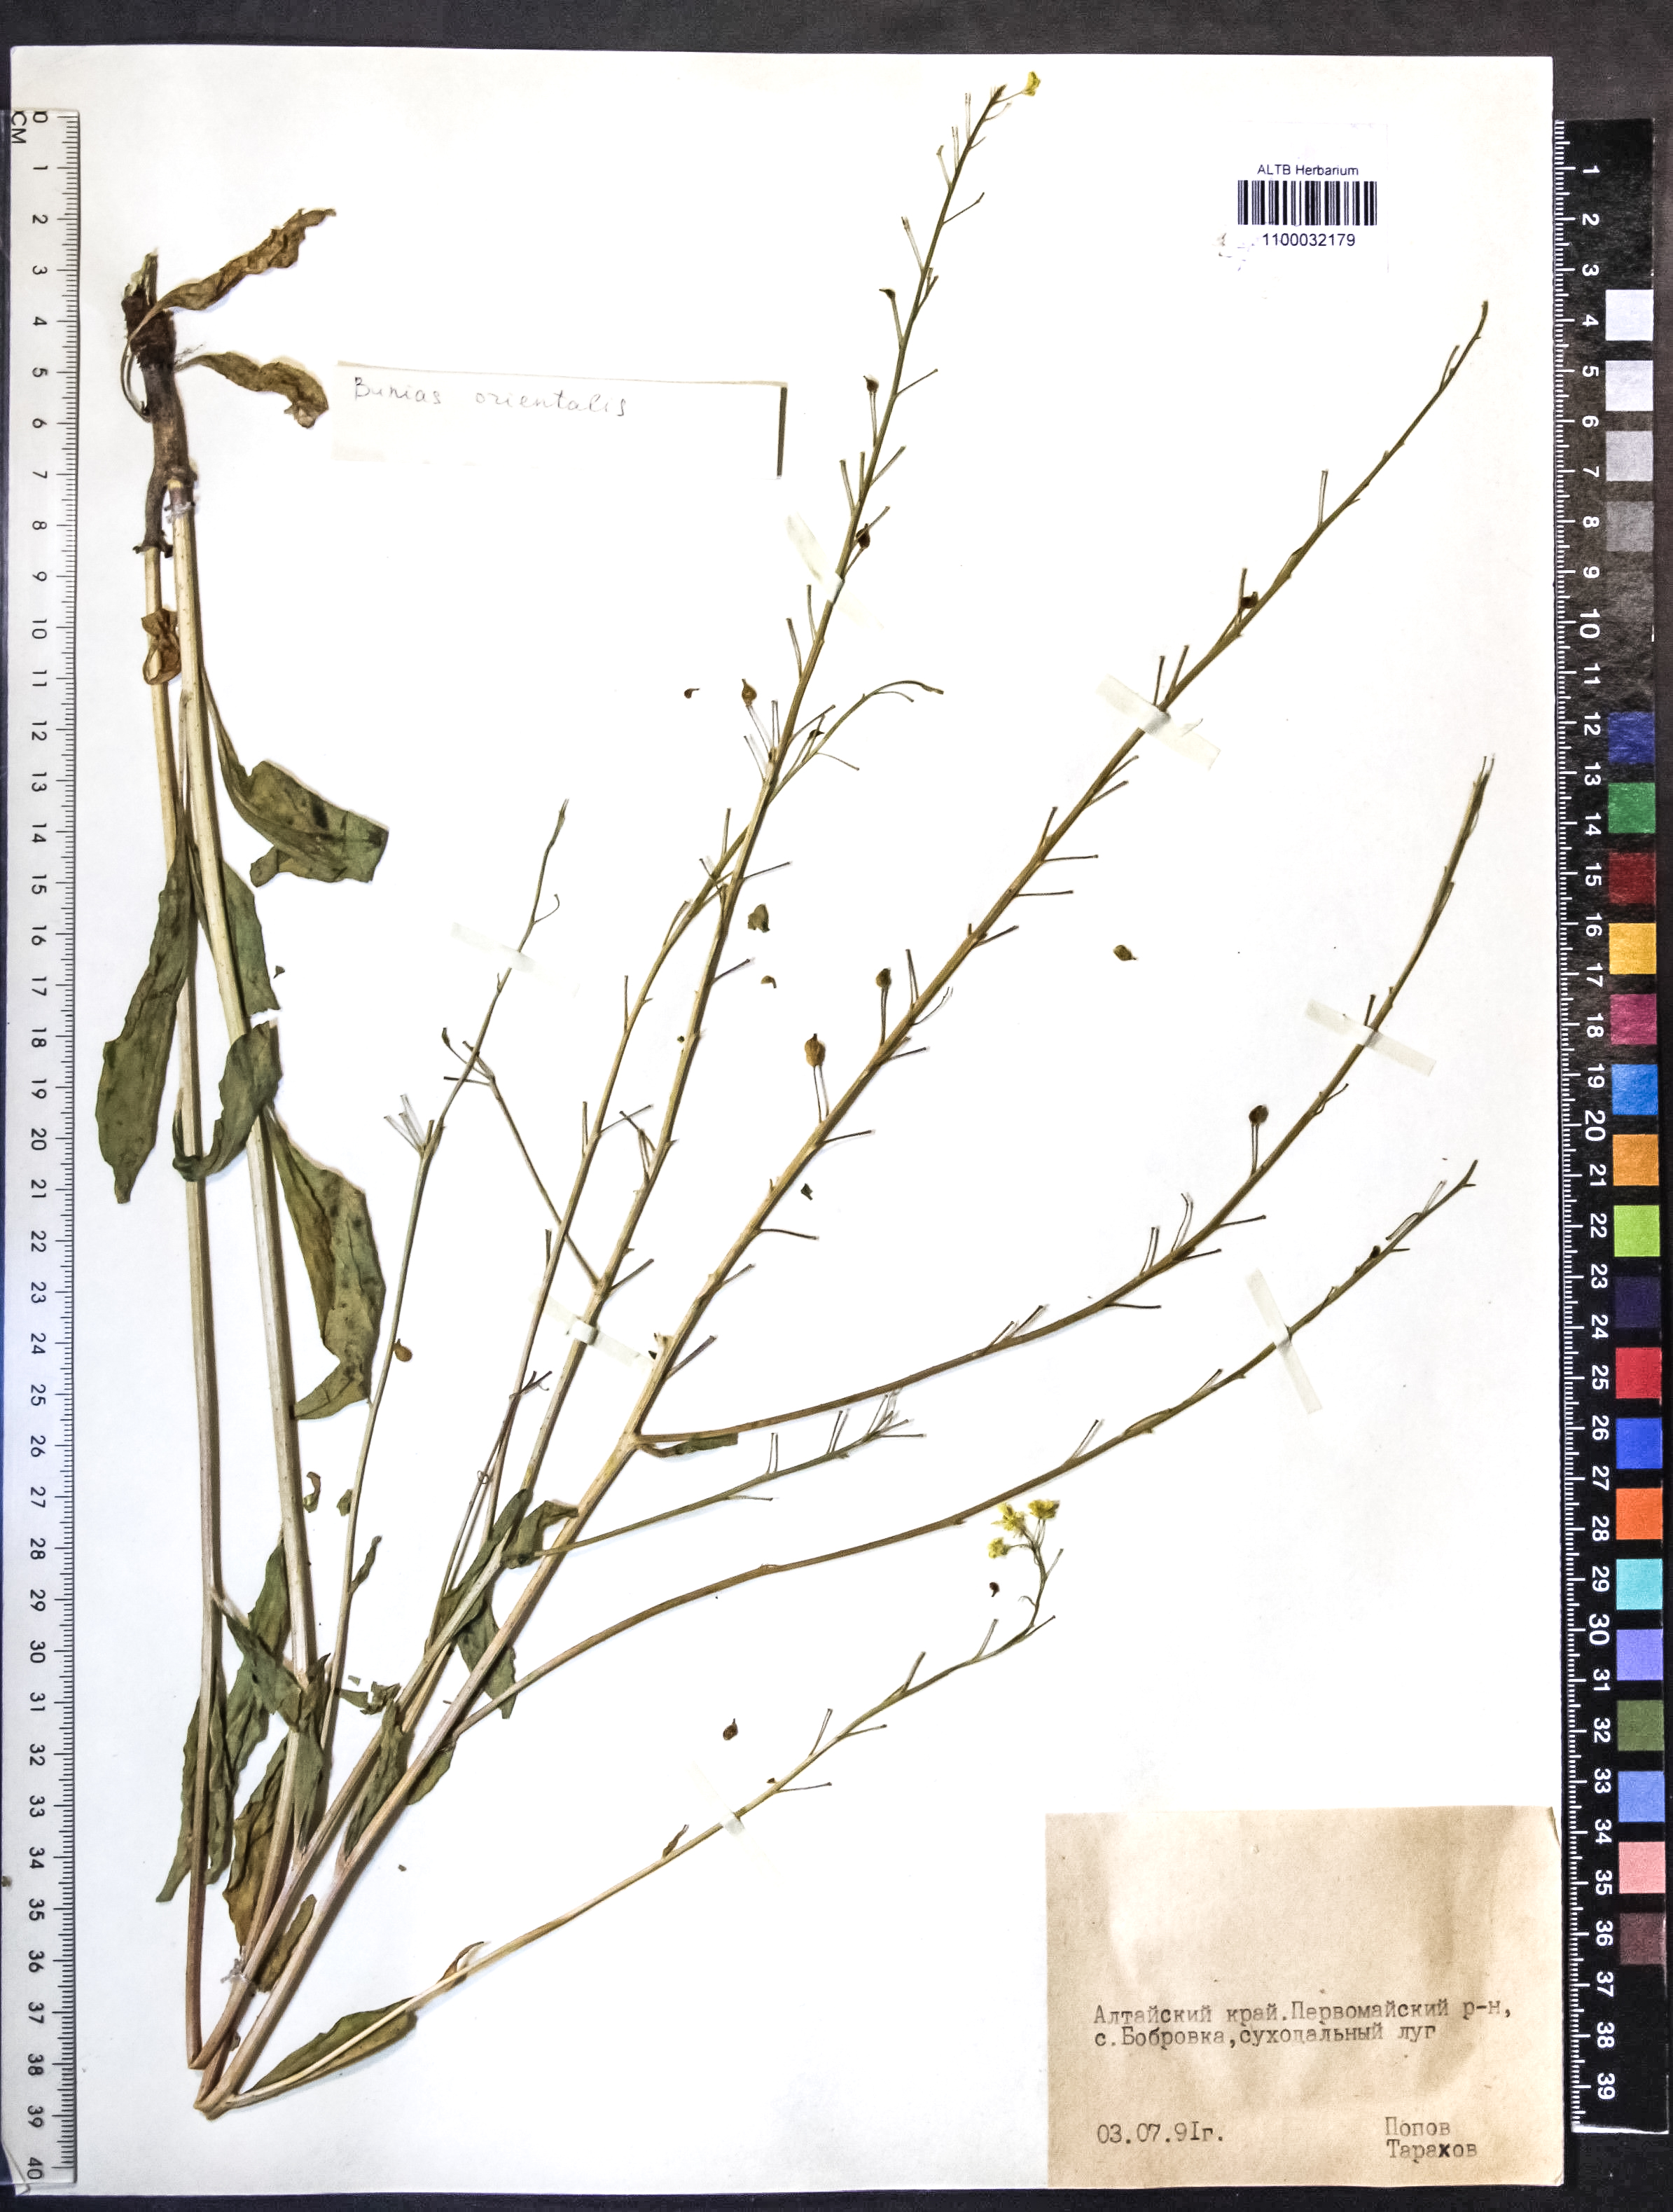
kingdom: Plantae
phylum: Tracheophyta
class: Magnoliopsida
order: Brassicales
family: Brassicaceae
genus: Bunias
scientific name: Bunias orientalis
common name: Warty-cabbage
